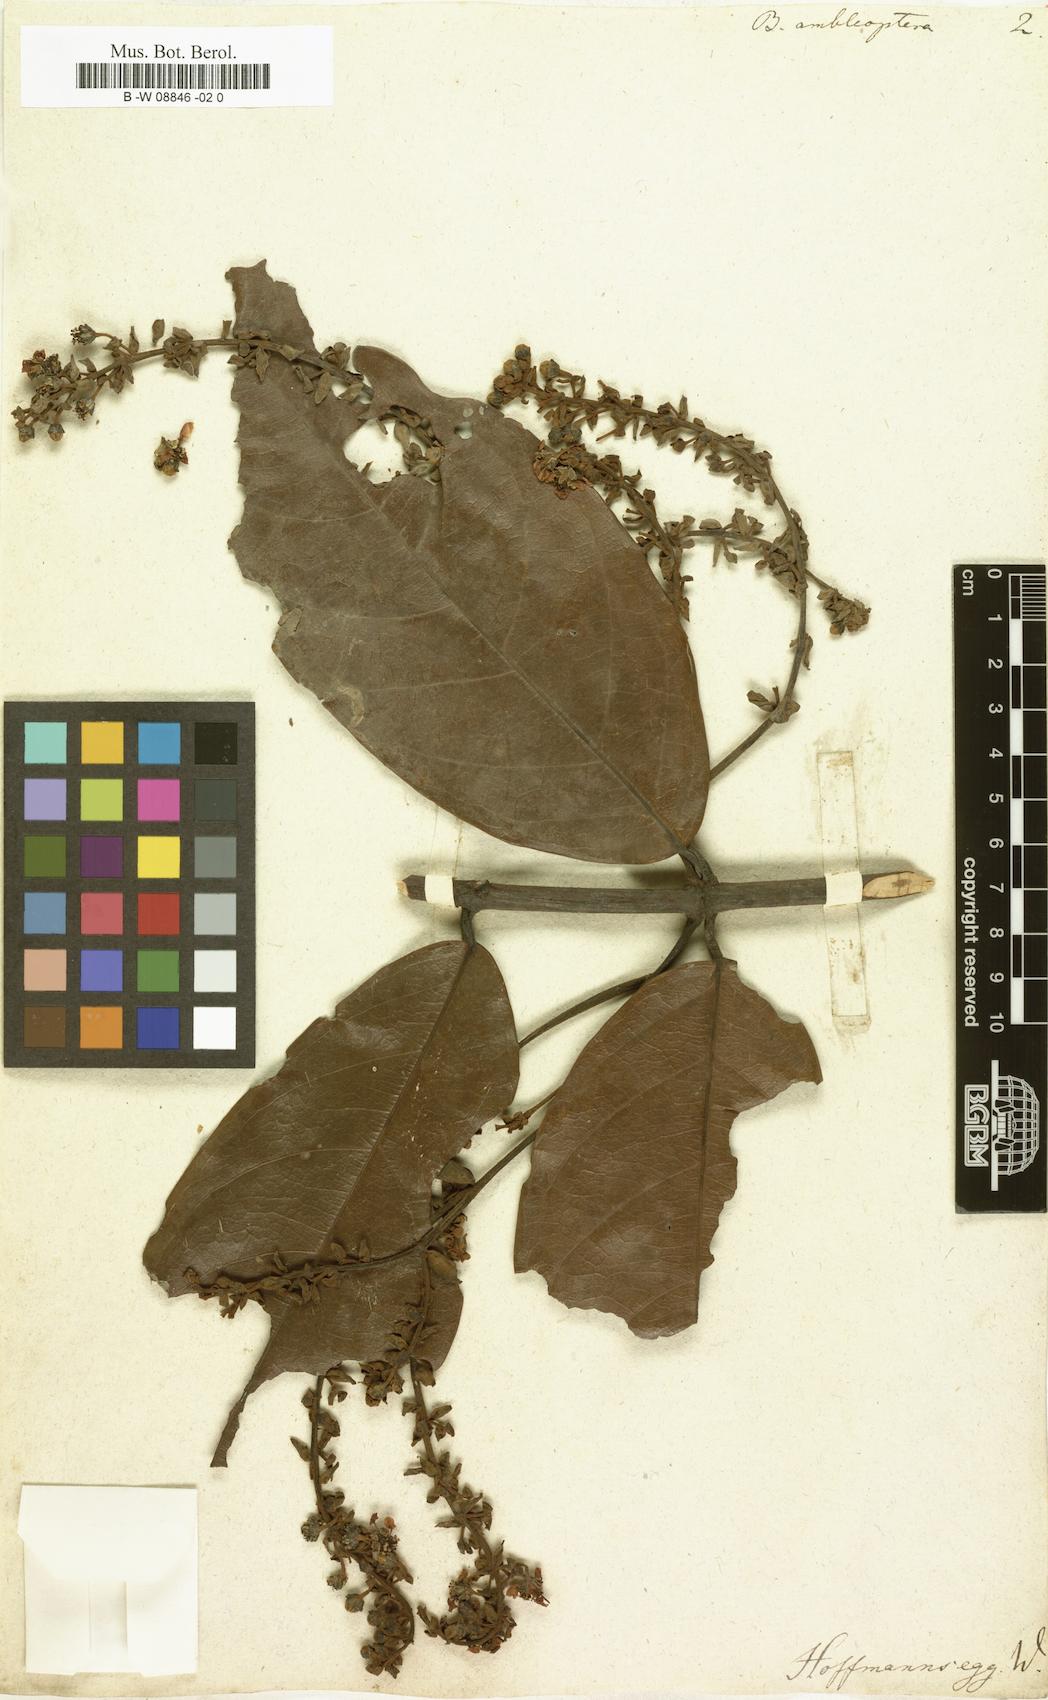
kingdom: Plantae
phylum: Tracheophyta
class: Magnoliopsida
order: Malpighiales
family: Malpighiaceae
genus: Heteropterys
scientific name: Heteropterys
